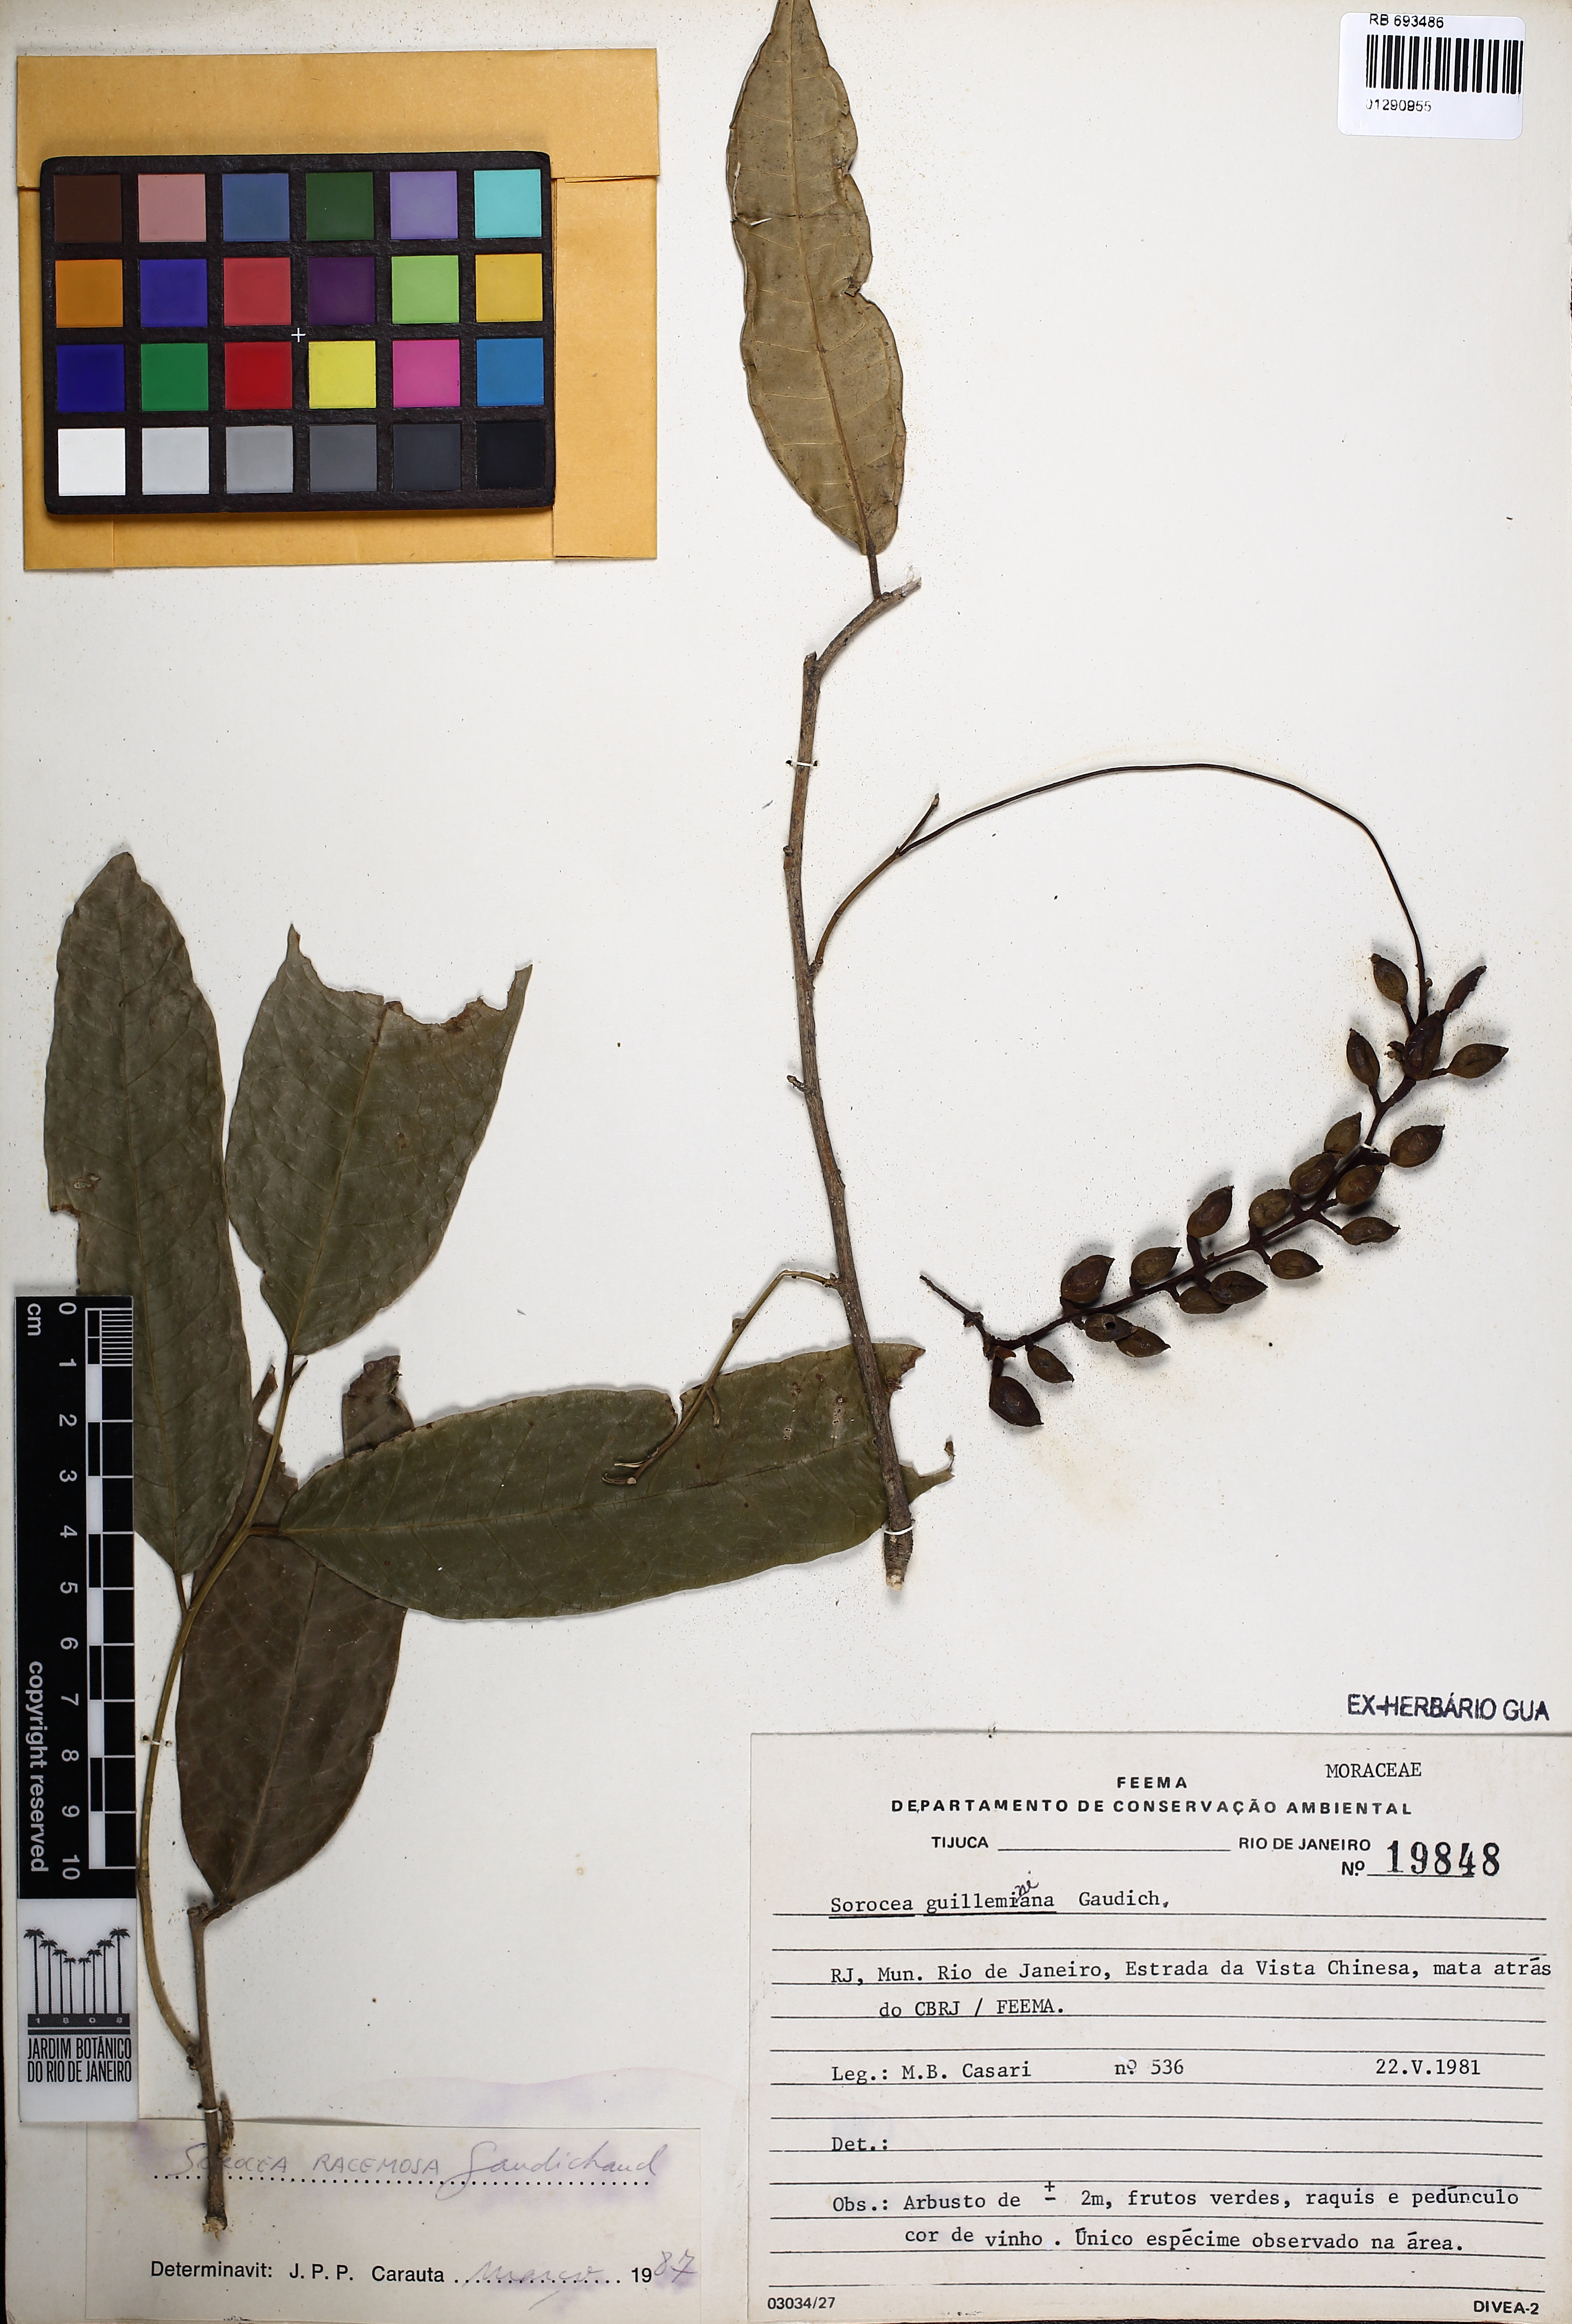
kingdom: Plantae
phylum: Tracheophyta
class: Magnoliopsida
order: Rosales
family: Moraceae
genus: Sorocea
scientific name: Sorocea hilarii
